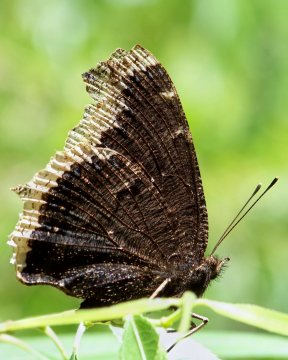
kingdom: Animalia
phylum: Arthropoda
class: Insecta
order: Lepidoptera
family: Nymphalidae
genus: Nymphalis
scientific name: Nymphalis antiopa
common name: Mourning Cloak
